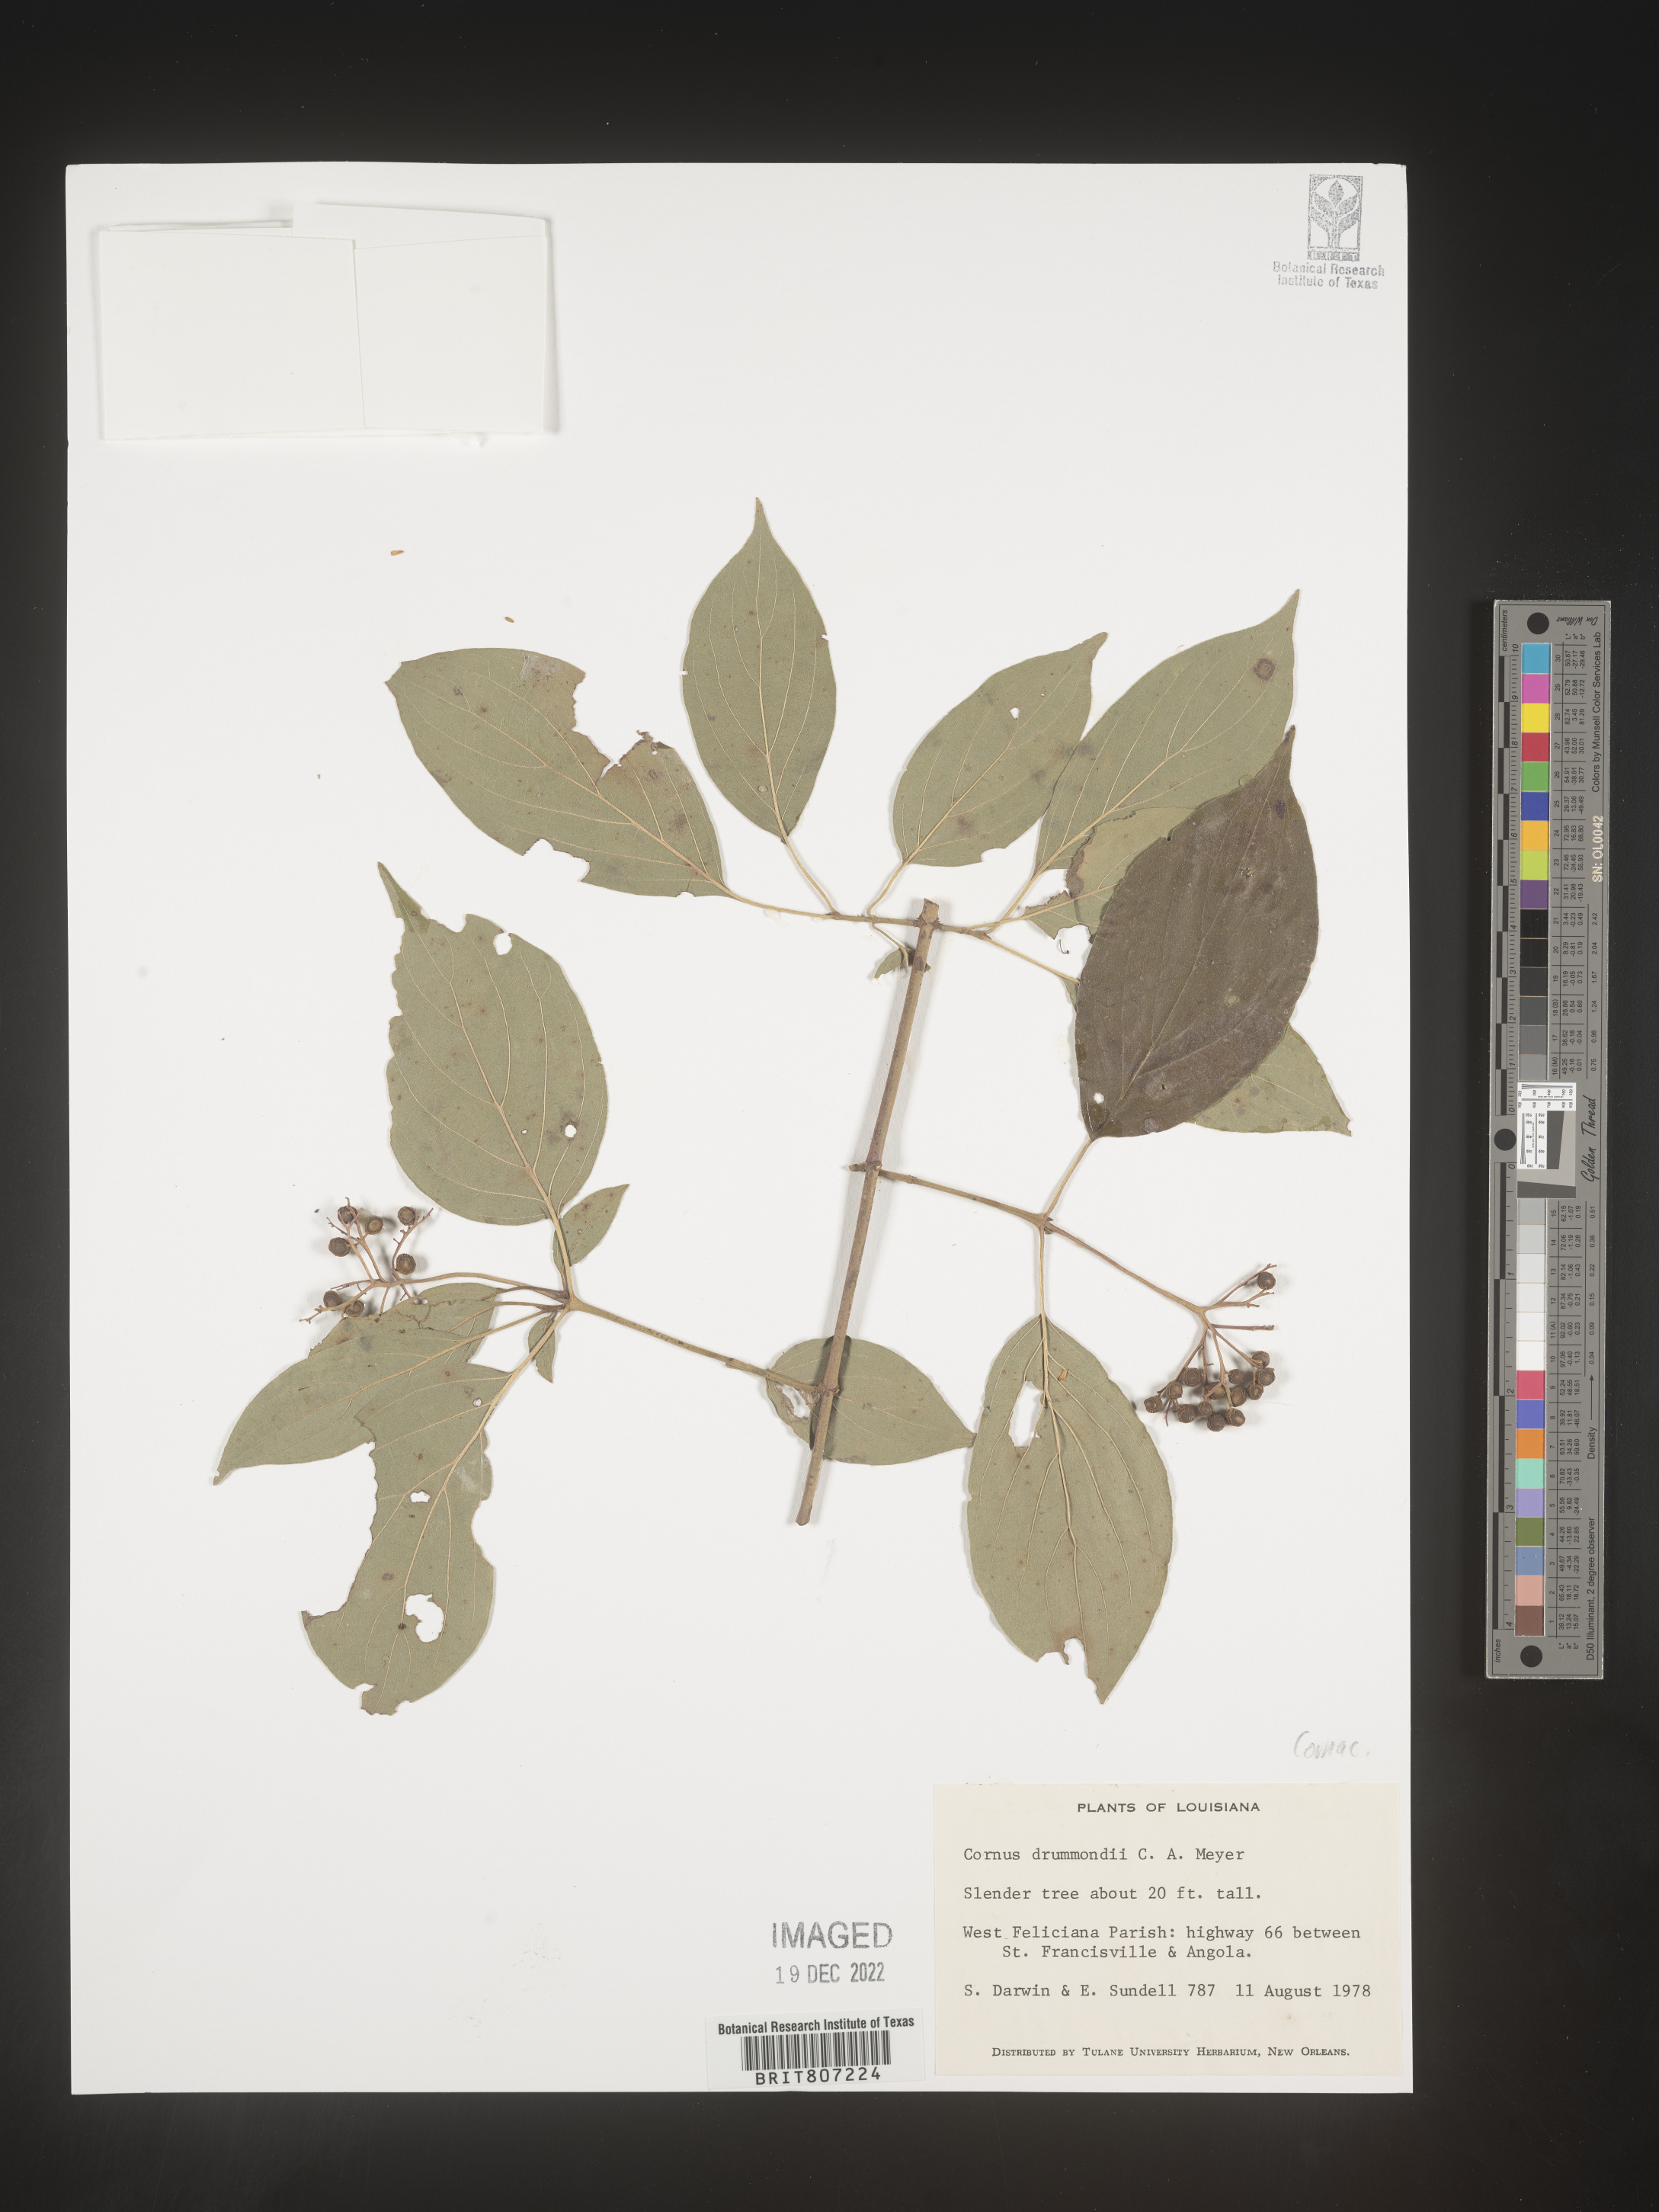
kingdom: Plantae
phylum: Tracheophyta
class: Magnoliopsida
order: Cornales
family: Cornaceae
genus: Cornus
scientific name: Cornus drummondii
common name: Rough-leaf dogwood
